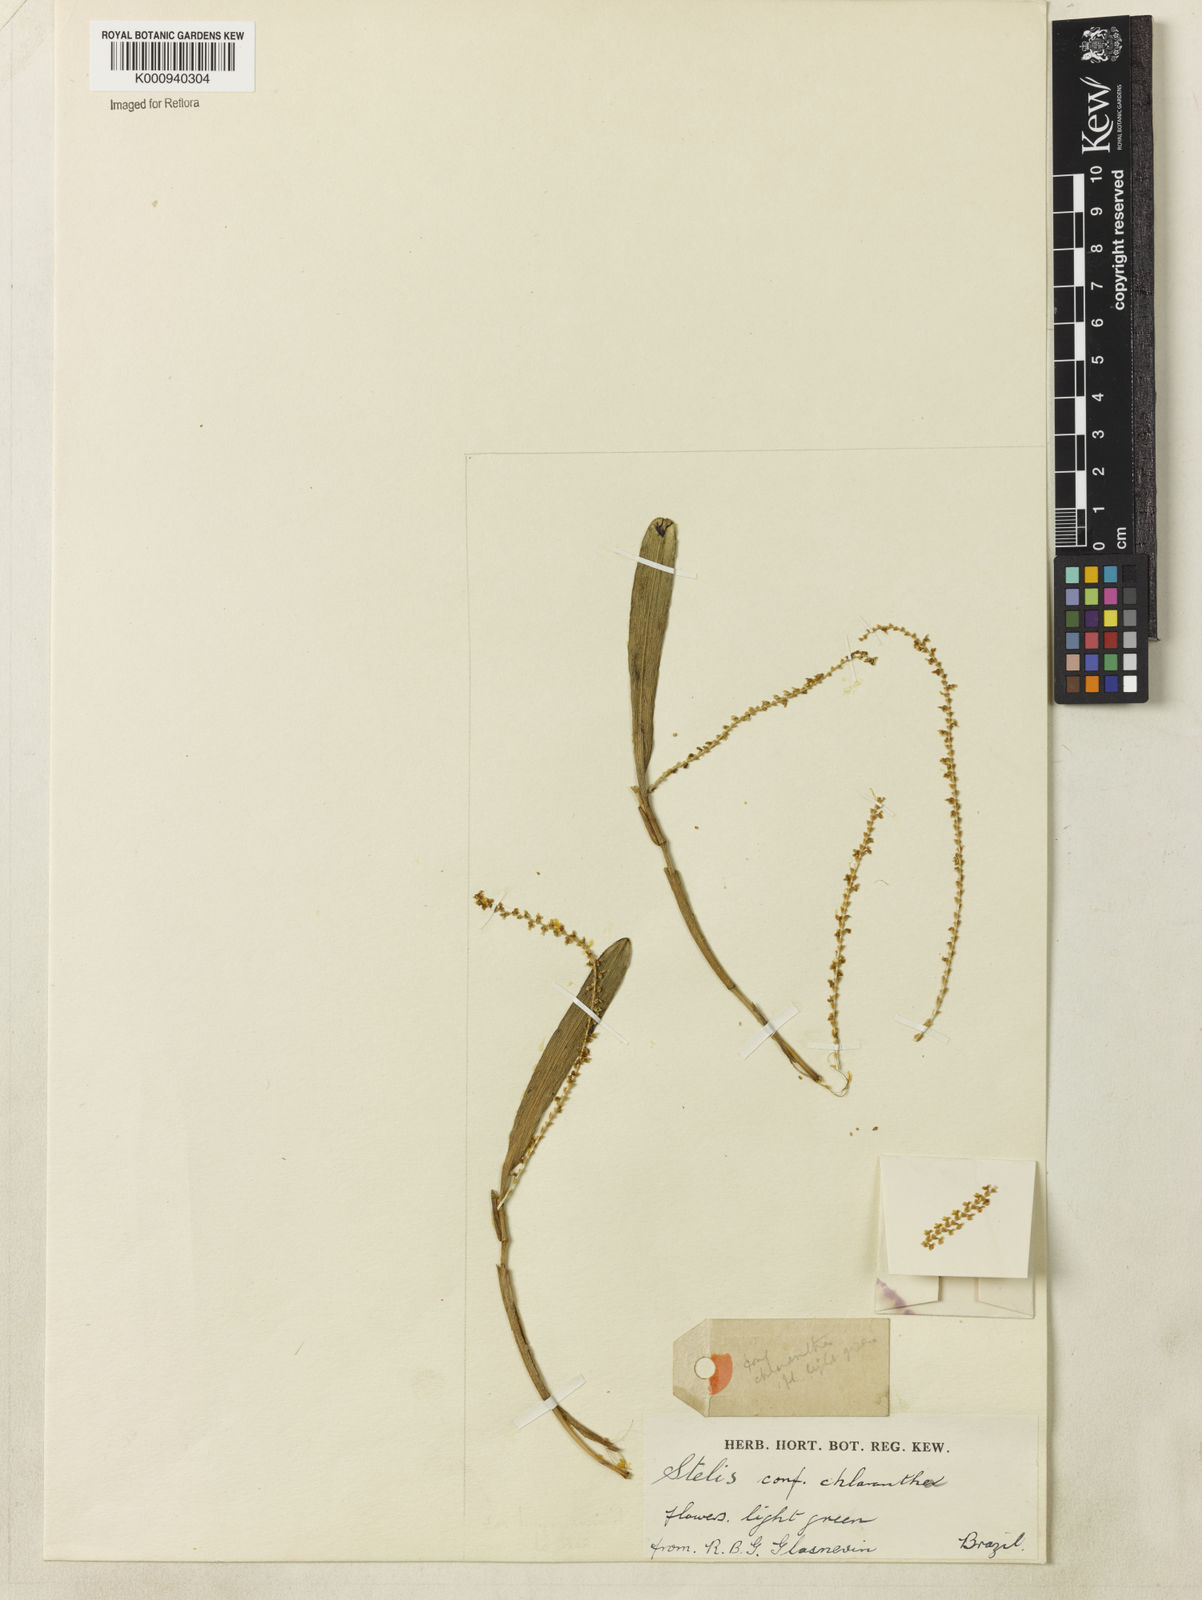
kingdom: Plantae
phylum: Tracheophyta
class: Liliopsida
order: Asparagales
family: Orchidaceae
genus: Stelis
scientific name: Stelis chlorantha
